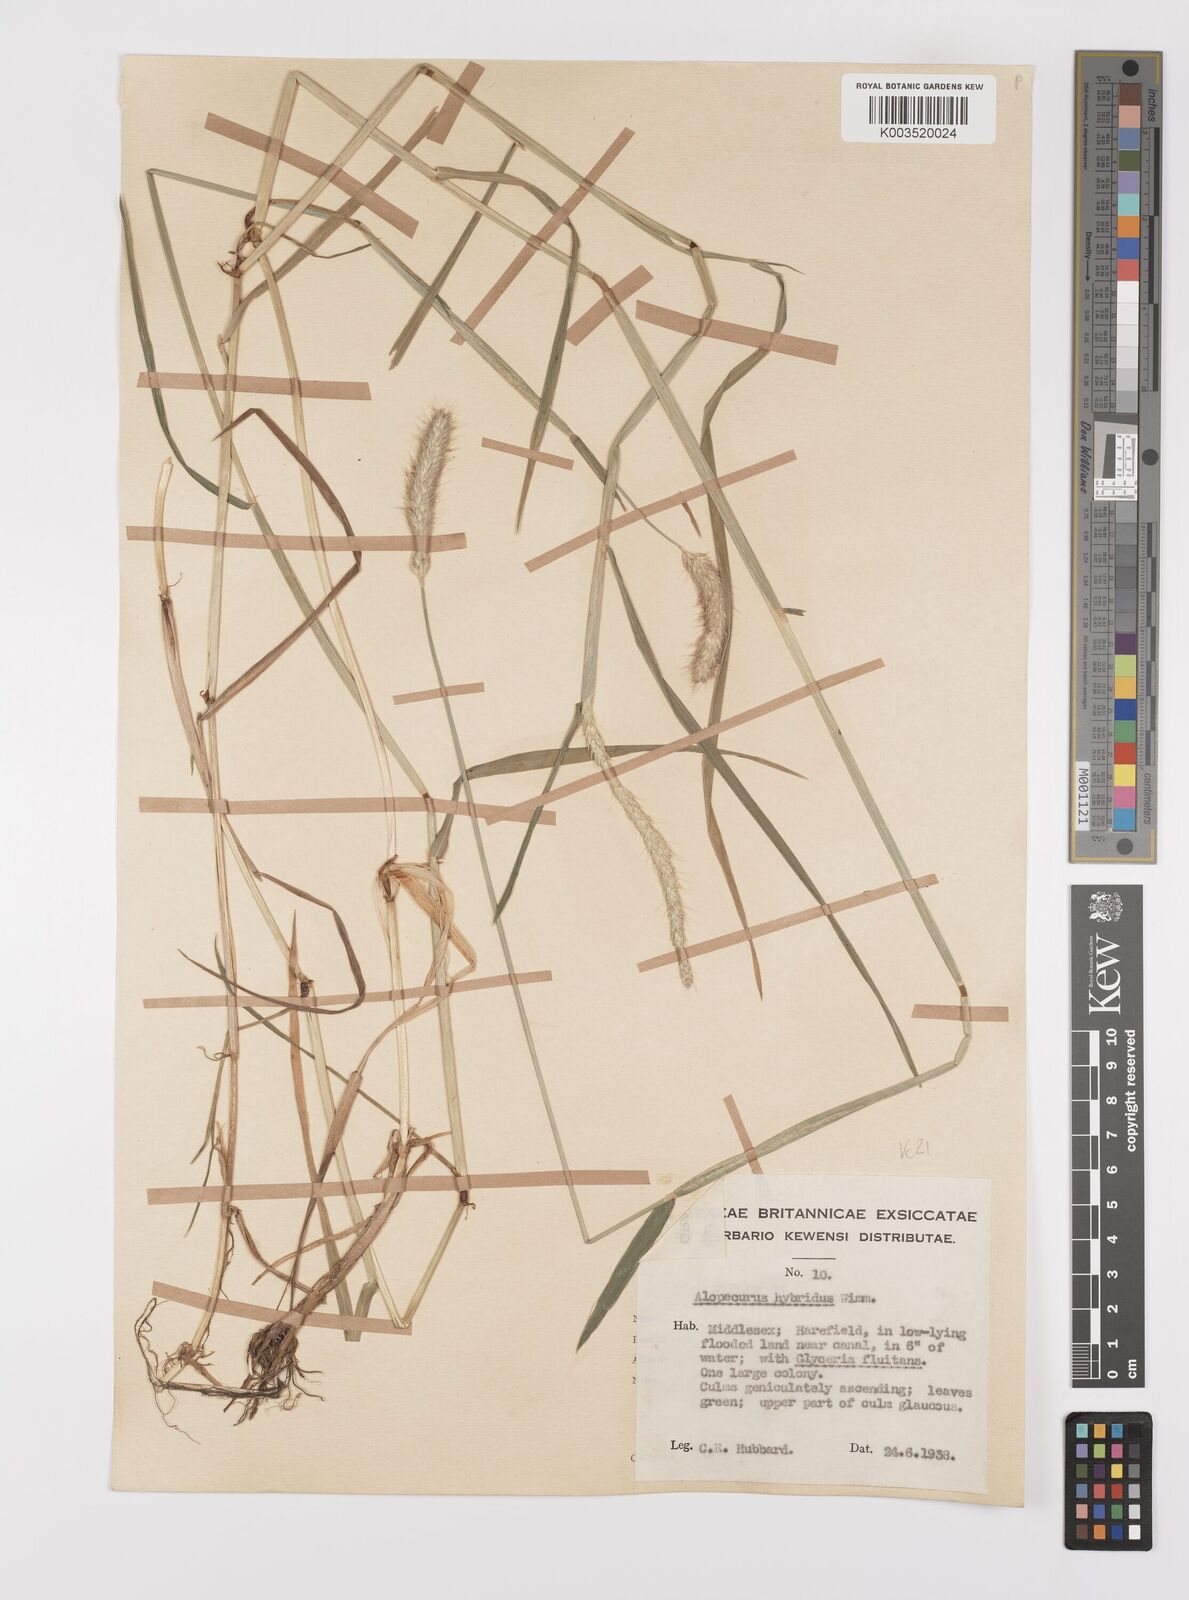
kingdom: Plantae
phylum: Tracheophyta
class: Liliopsida
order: Poales
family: Poaceae
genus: Alopecurus
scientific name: Alopecurus brachystylus
